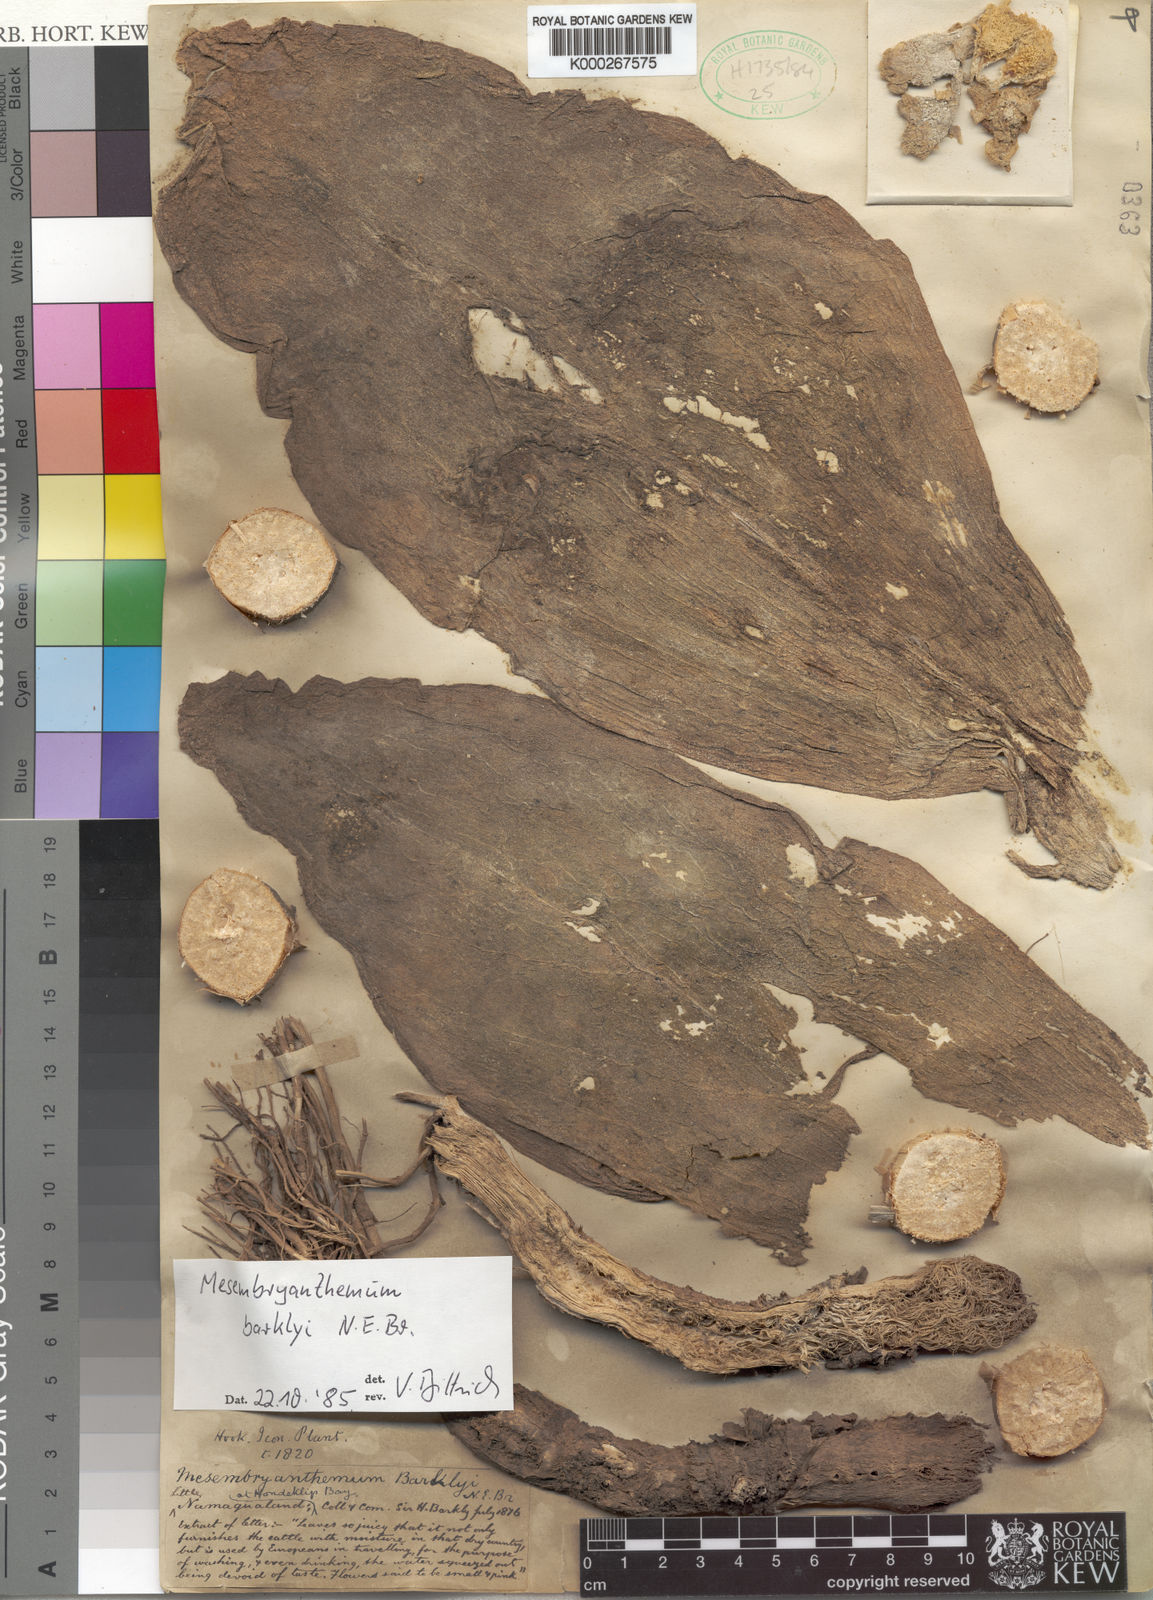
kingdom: Plantae
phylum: Tracheophyta
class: Magnoliopsida
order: Caryophyllales
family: Aizoaceae
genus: Mesembryanthemum
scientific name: Mesembryanthemum barklyi
